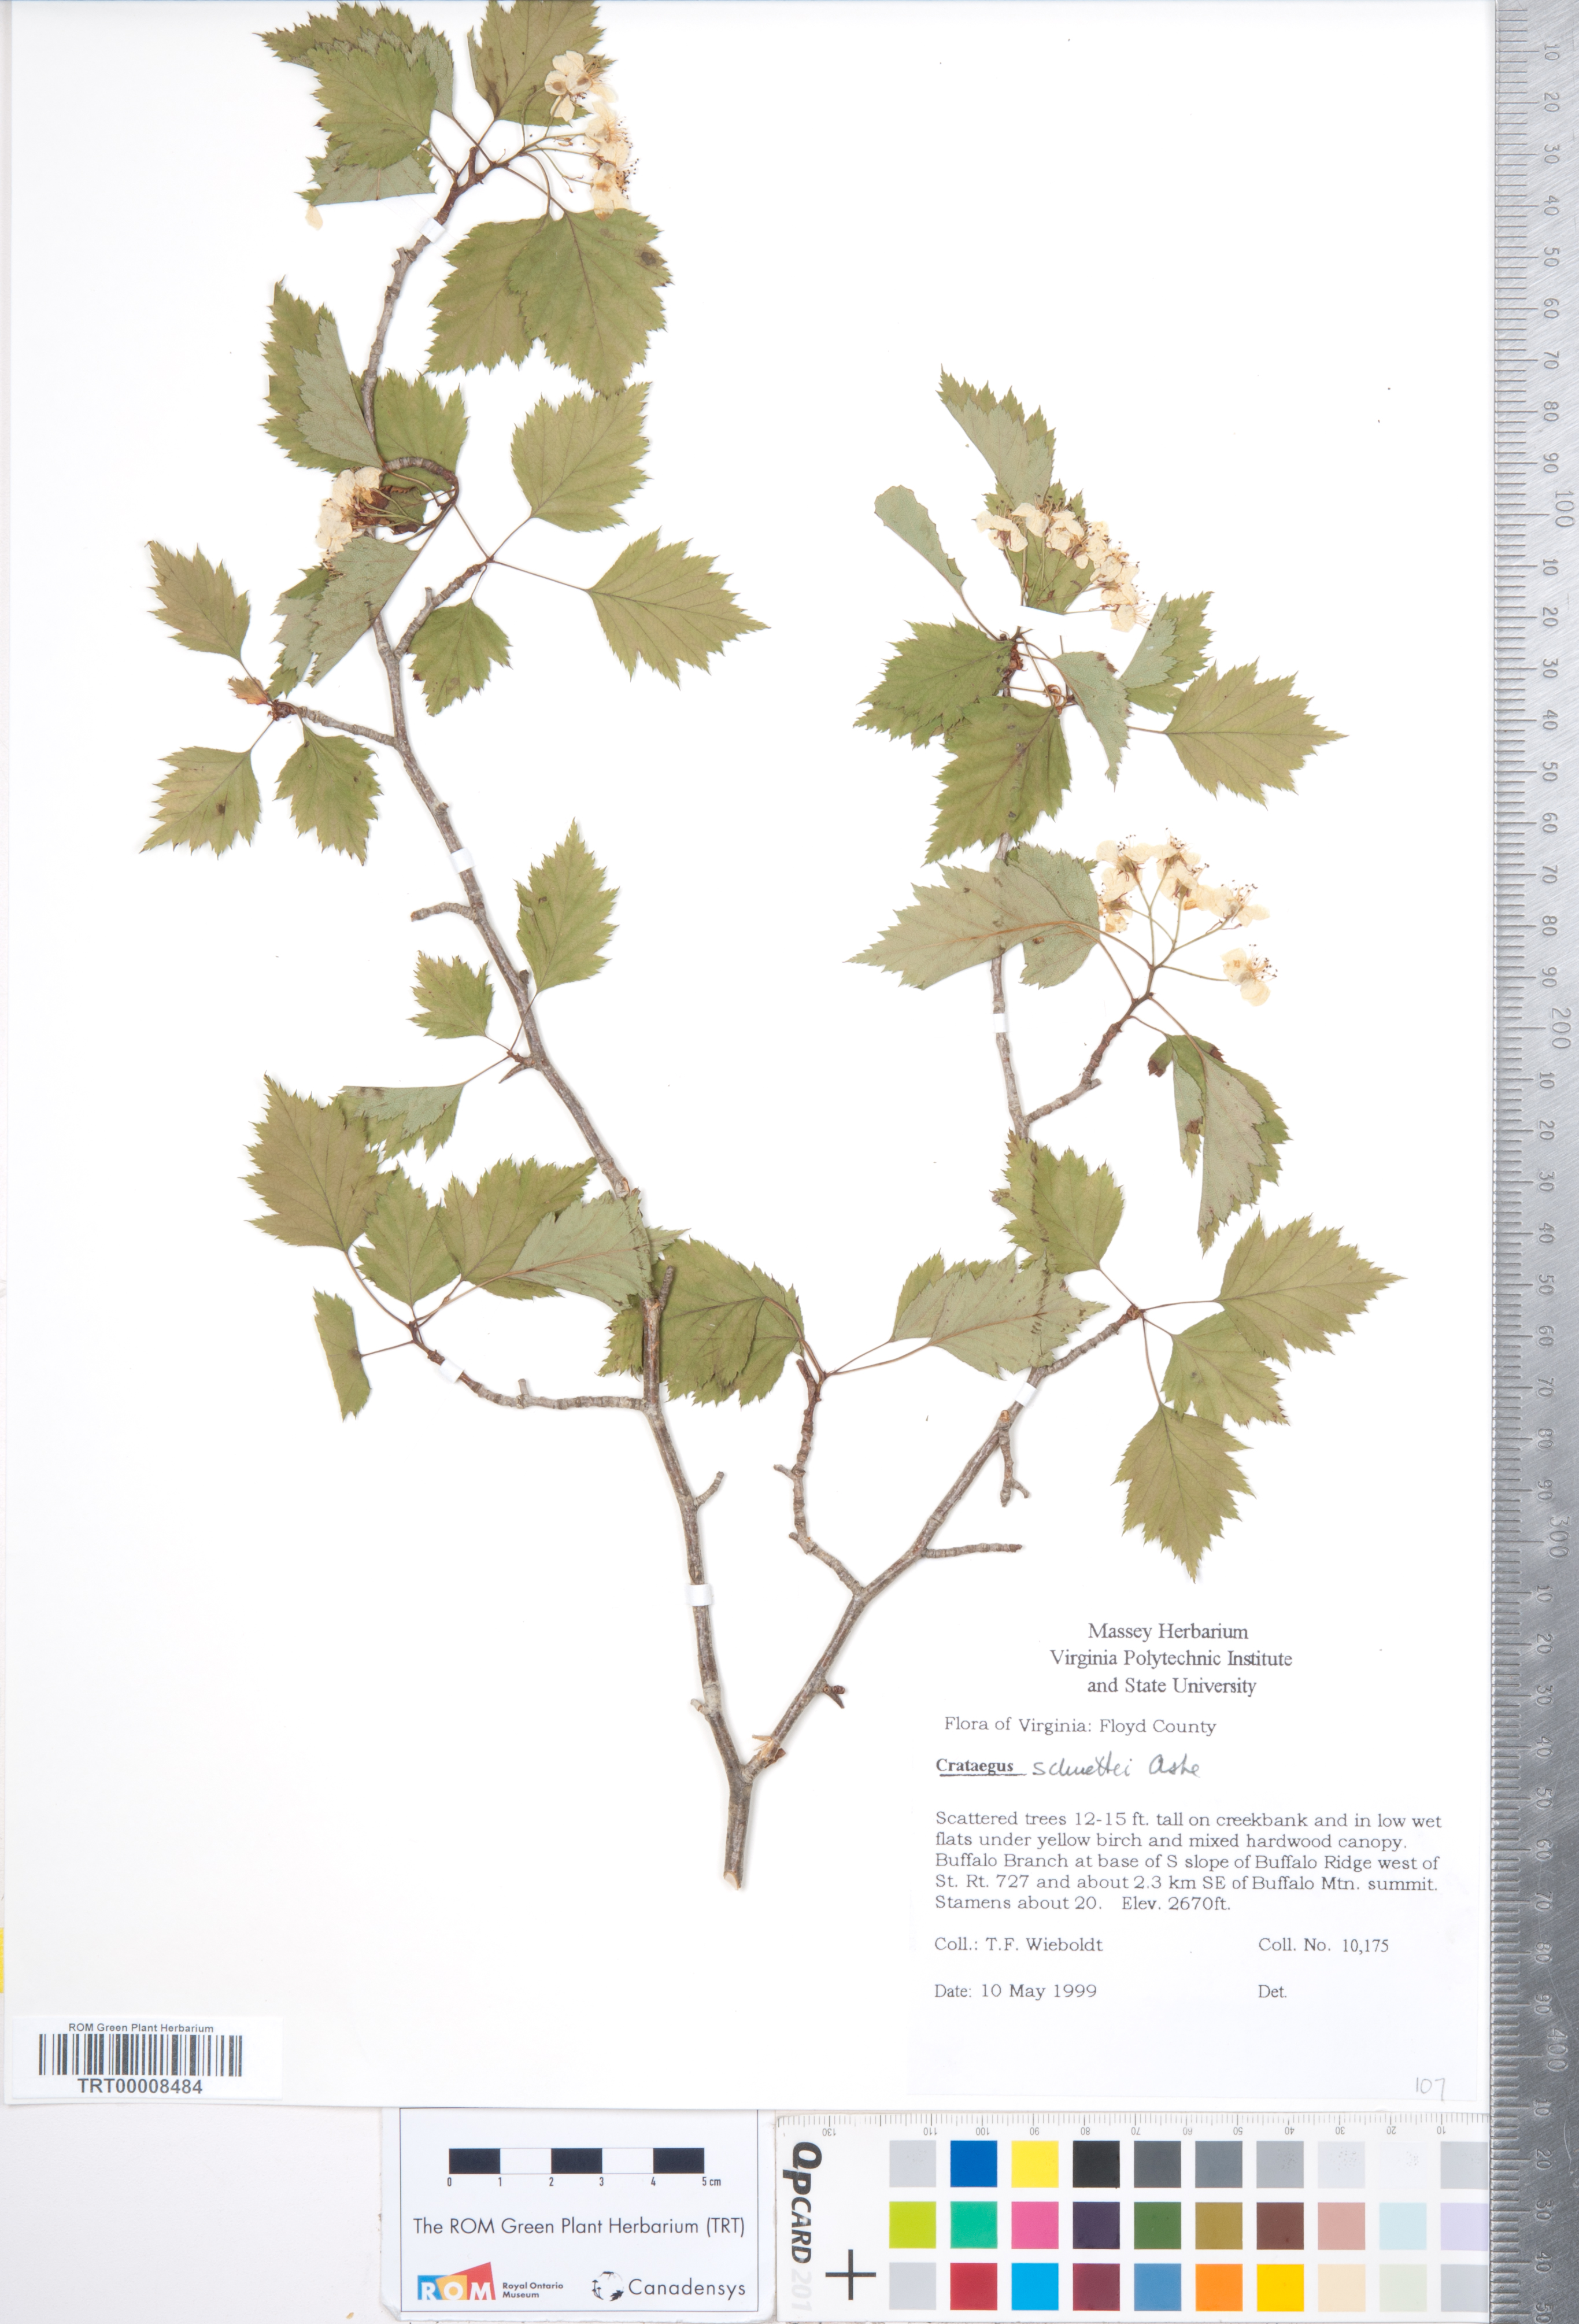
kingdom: Plantae
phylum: Tracheophyta
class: Magnoliopsida
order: Rosales
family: Rosaceae
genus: Crataegus
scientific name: Crataegus schuettei
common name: Schuette's hawthorn
